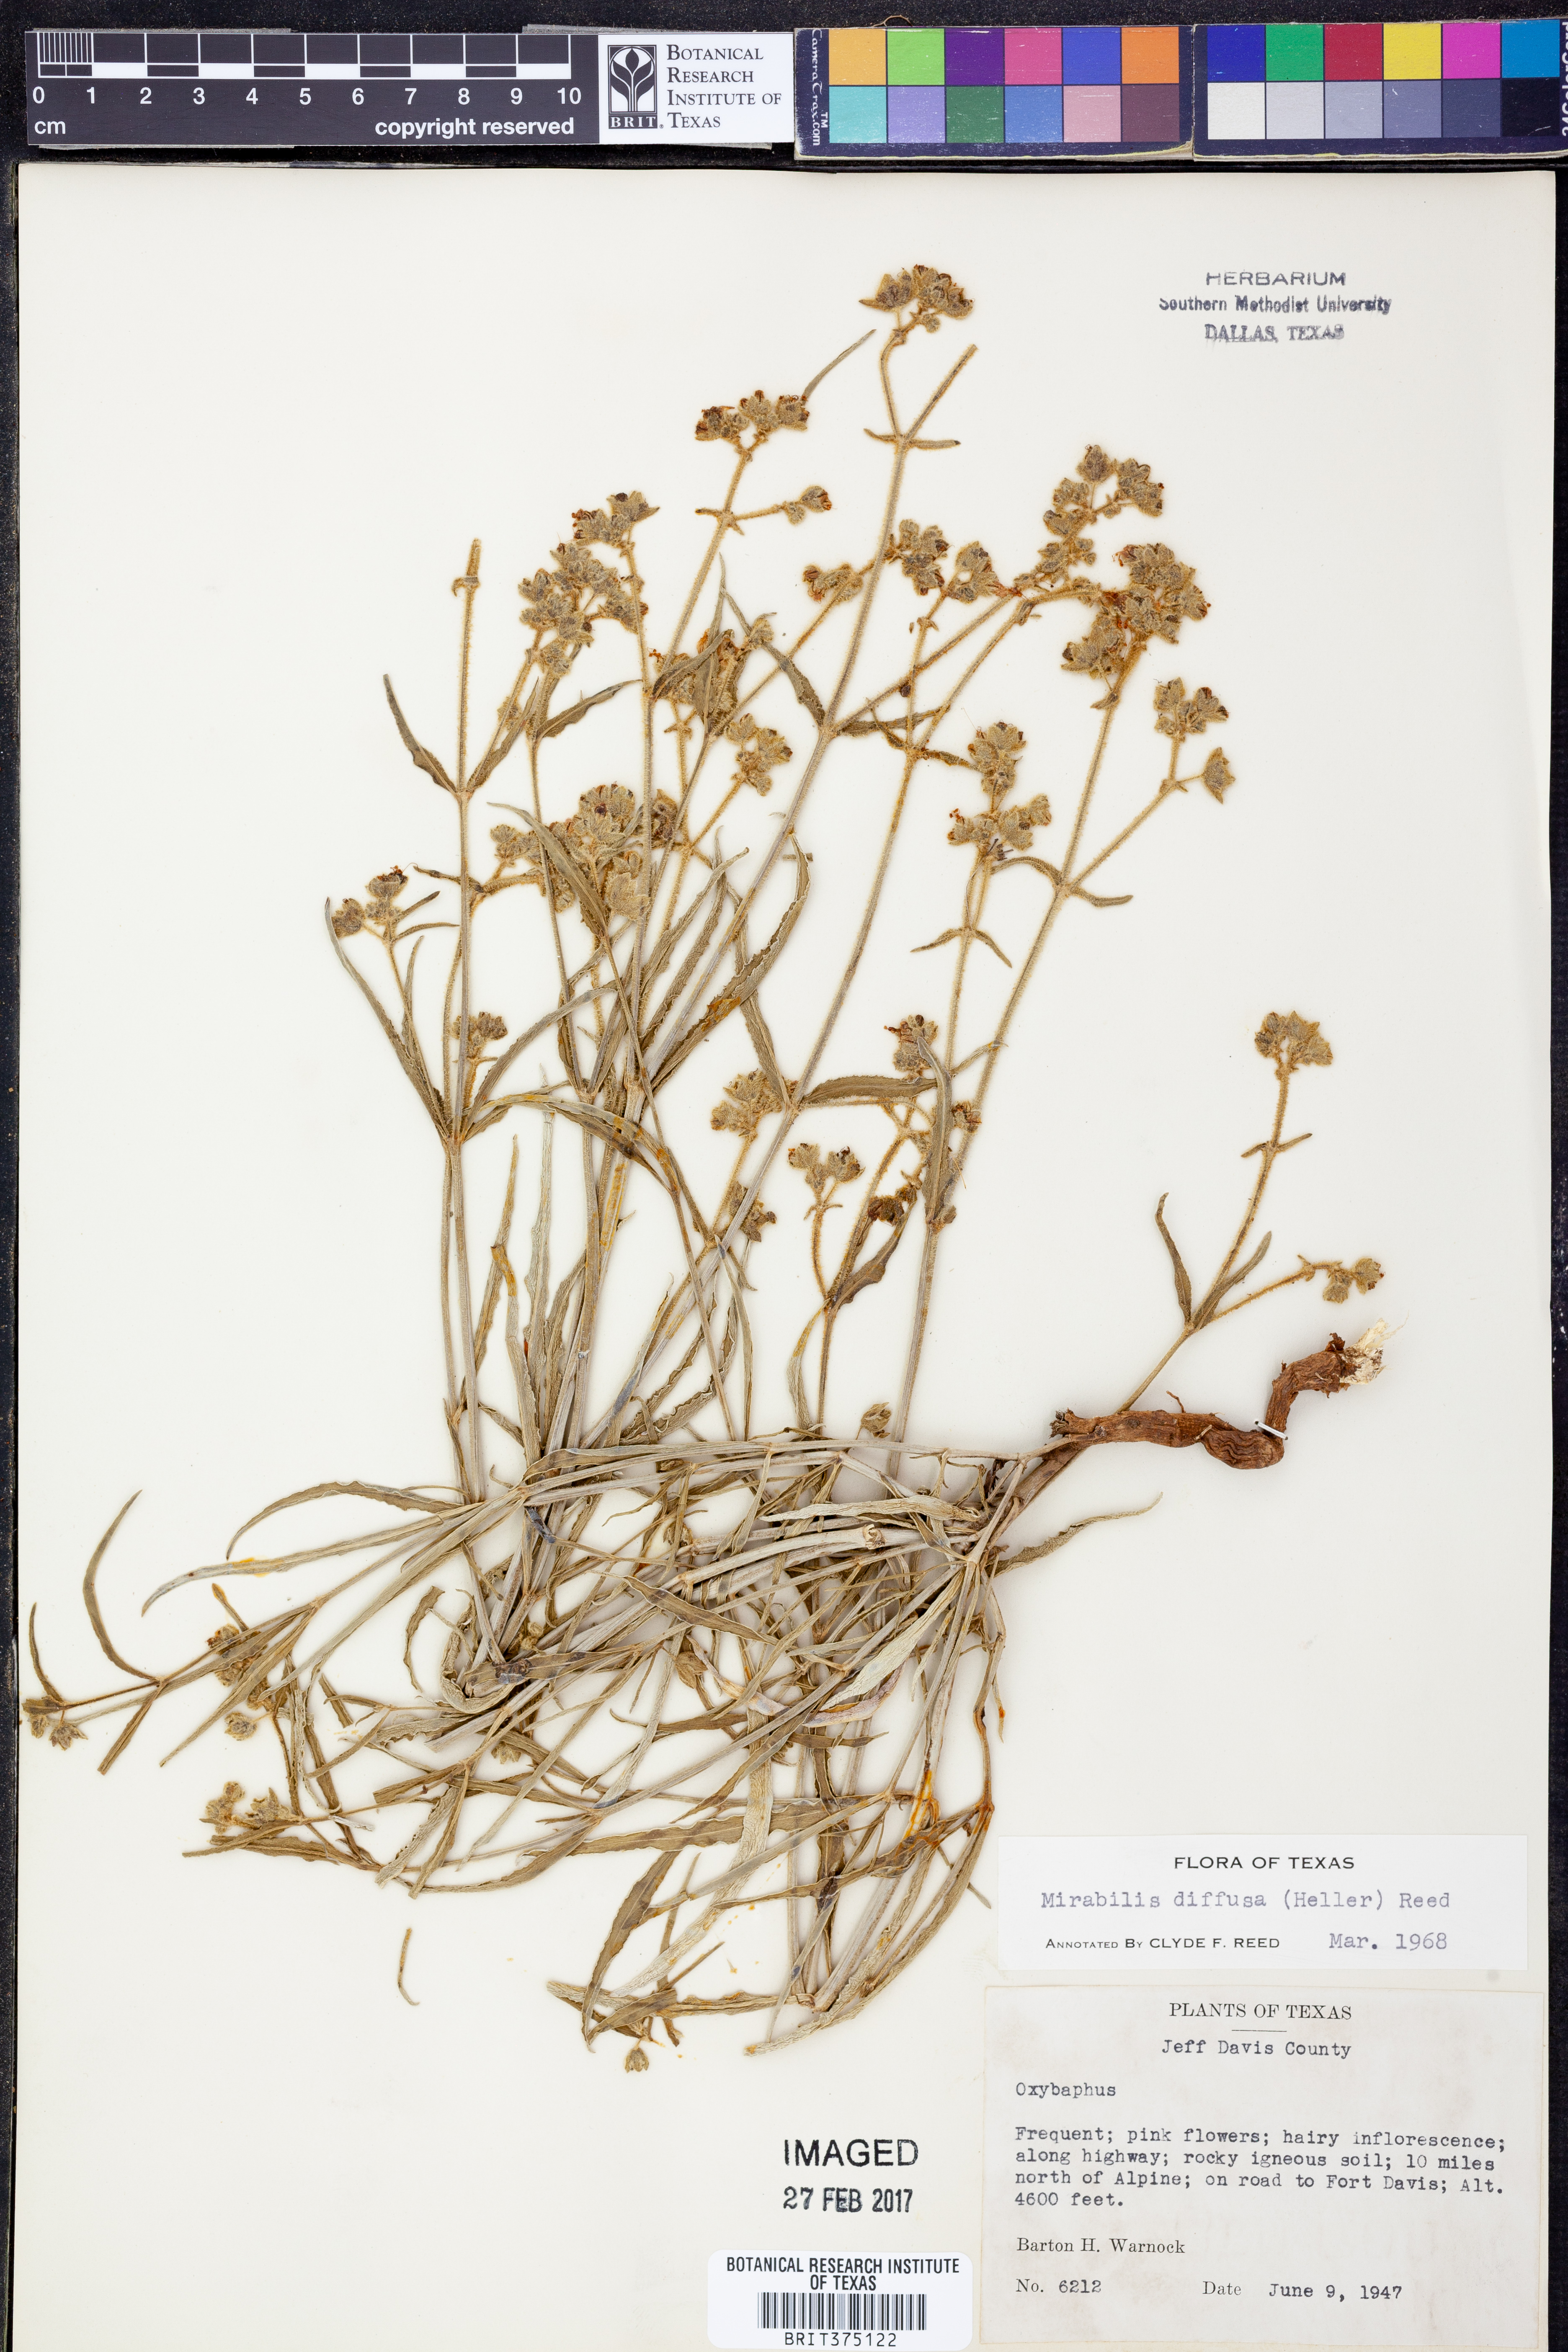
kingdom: Plantae
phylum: Tracheophyta
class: Magnoliopsida
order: Caryophyllales
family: Nyctaginaceae
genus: Mirabilis
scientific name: Mirabilis linearis
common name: Linear-leaved four-o'clock
